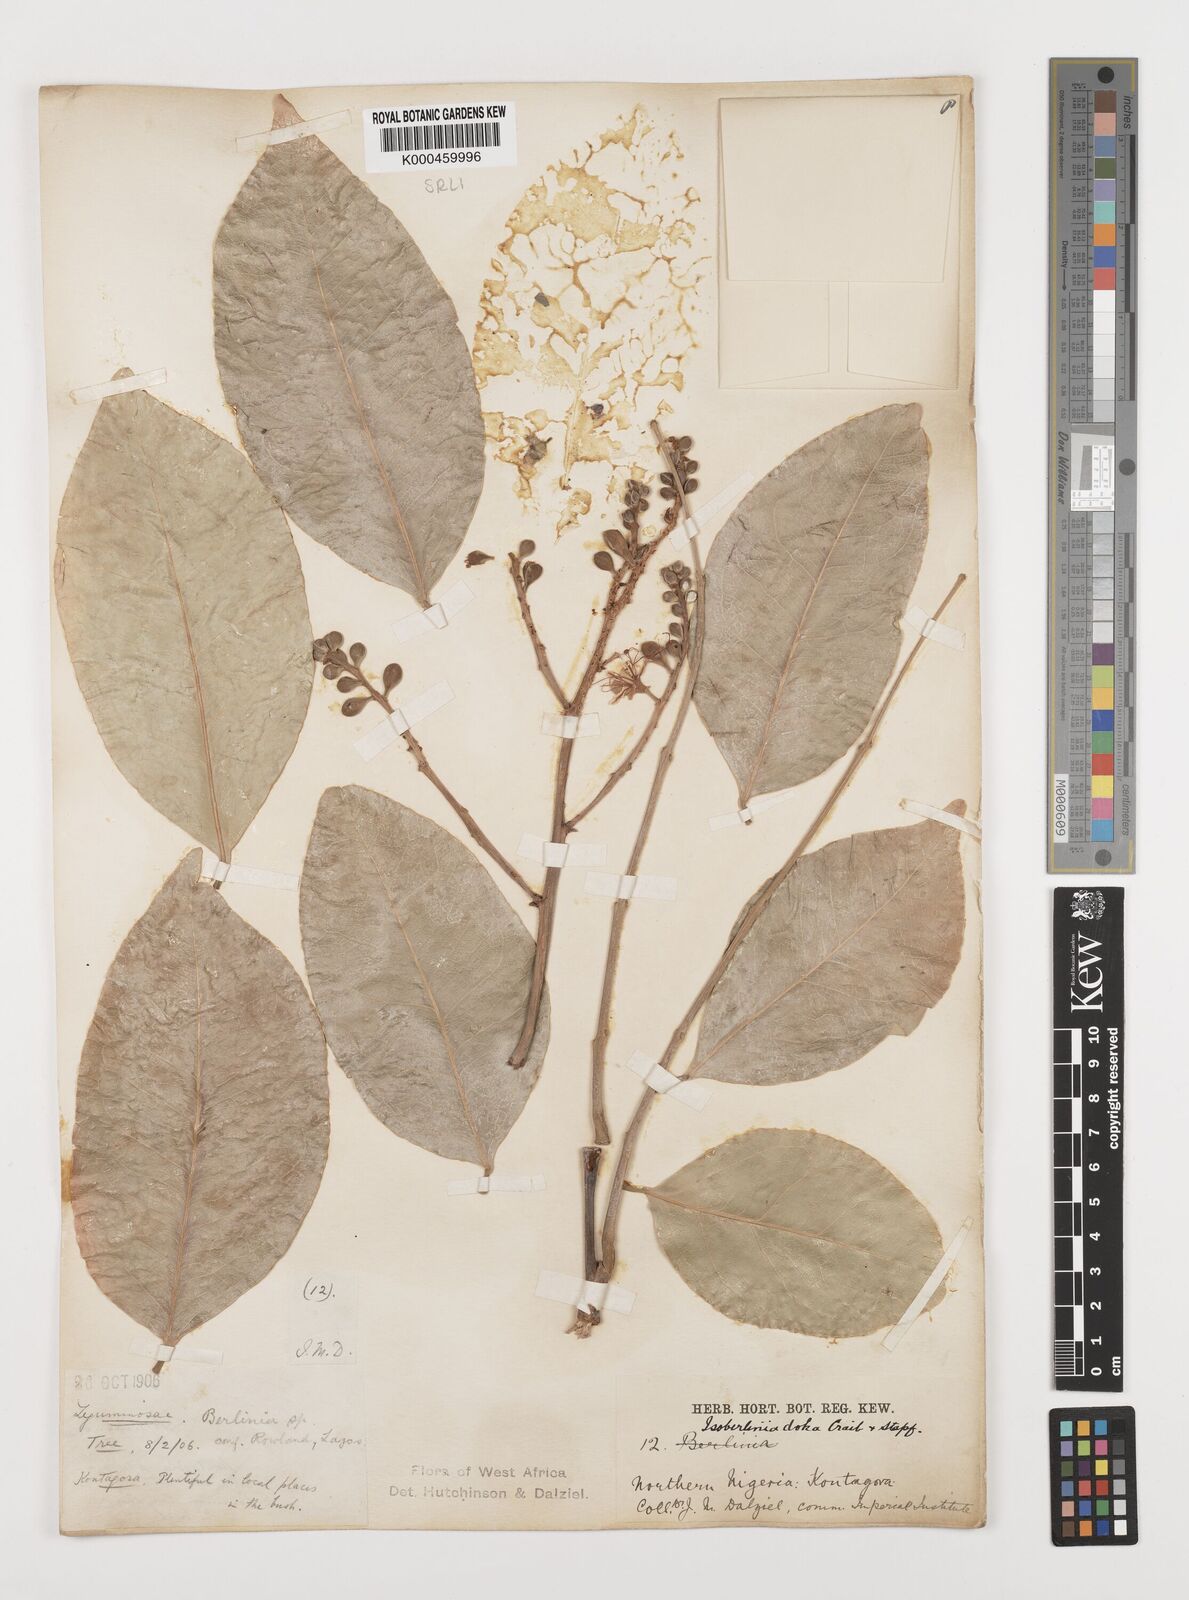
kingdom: Plantae
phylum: Tracheophyta
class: Magnoliopsida
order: Fabales
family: Fabaceae
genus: Isoberlinia
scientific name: Isoberlinia doka
